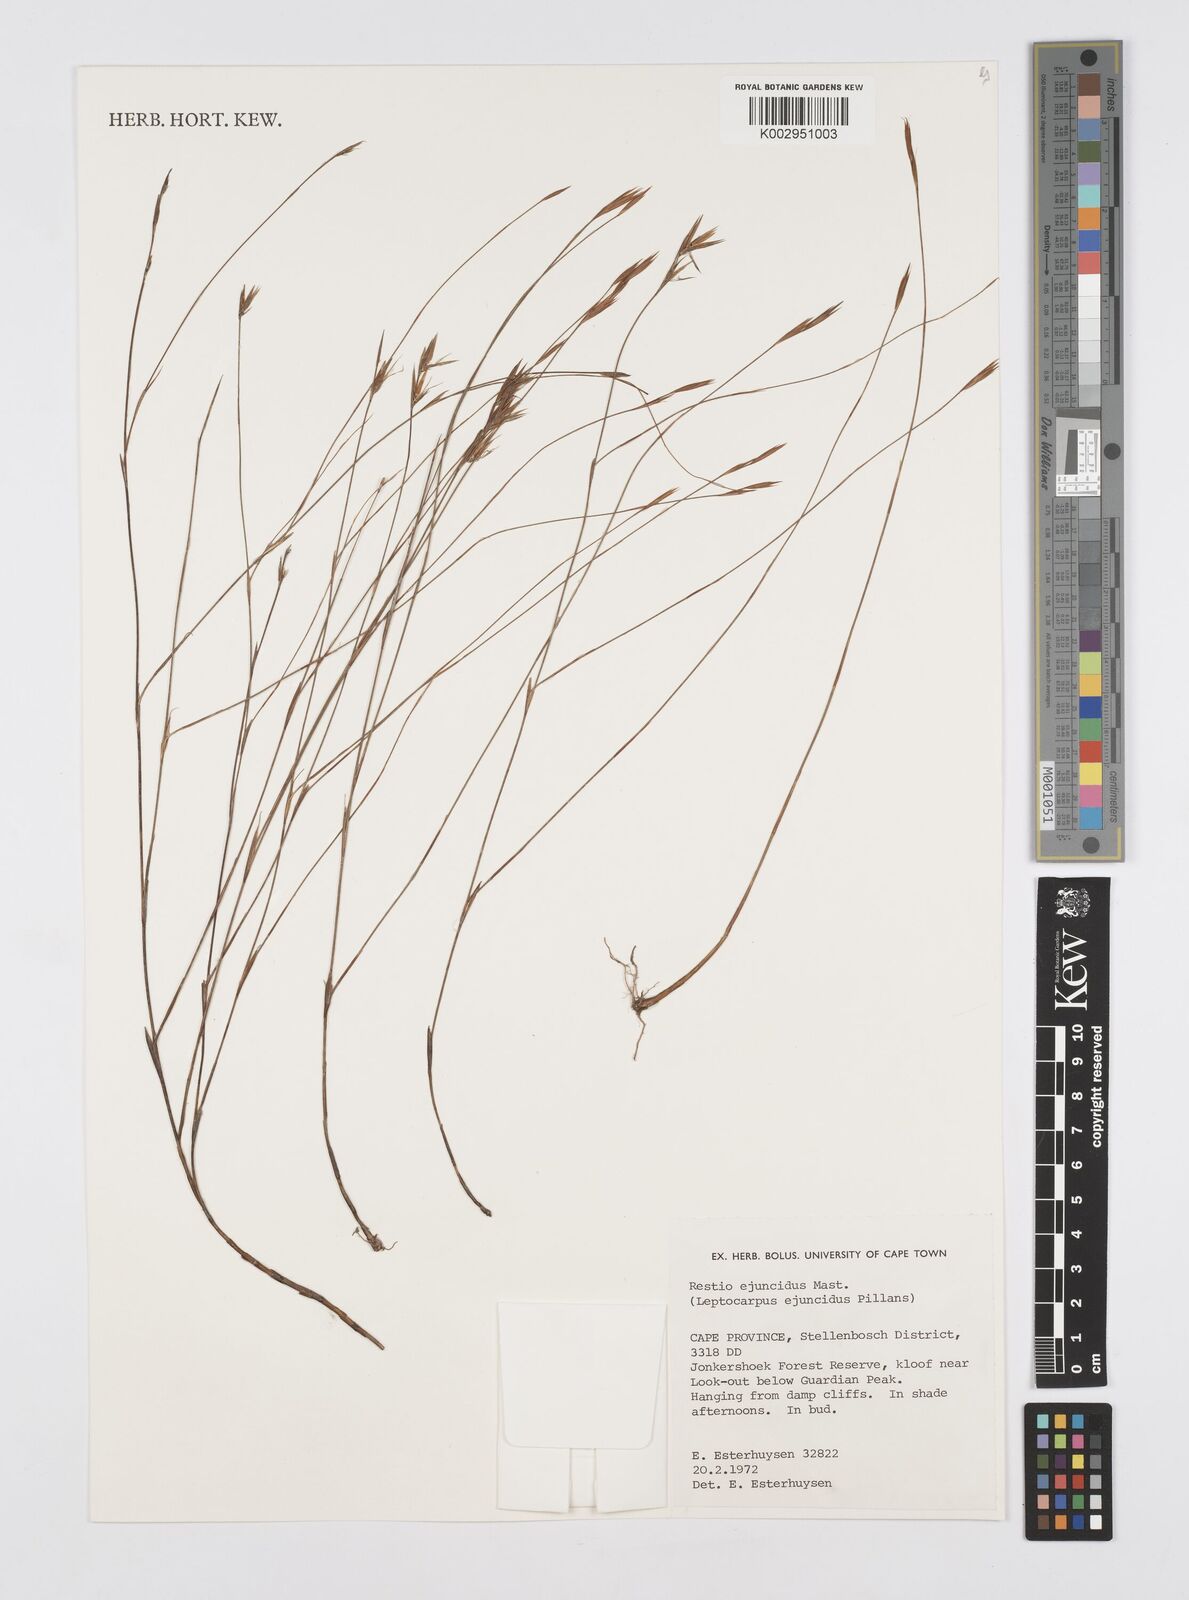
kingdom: Plantae
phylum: Tracheophyta
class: Liliopsida
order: Poales
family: Restionaceae
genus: Restio
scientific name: Restio ejuncidus
